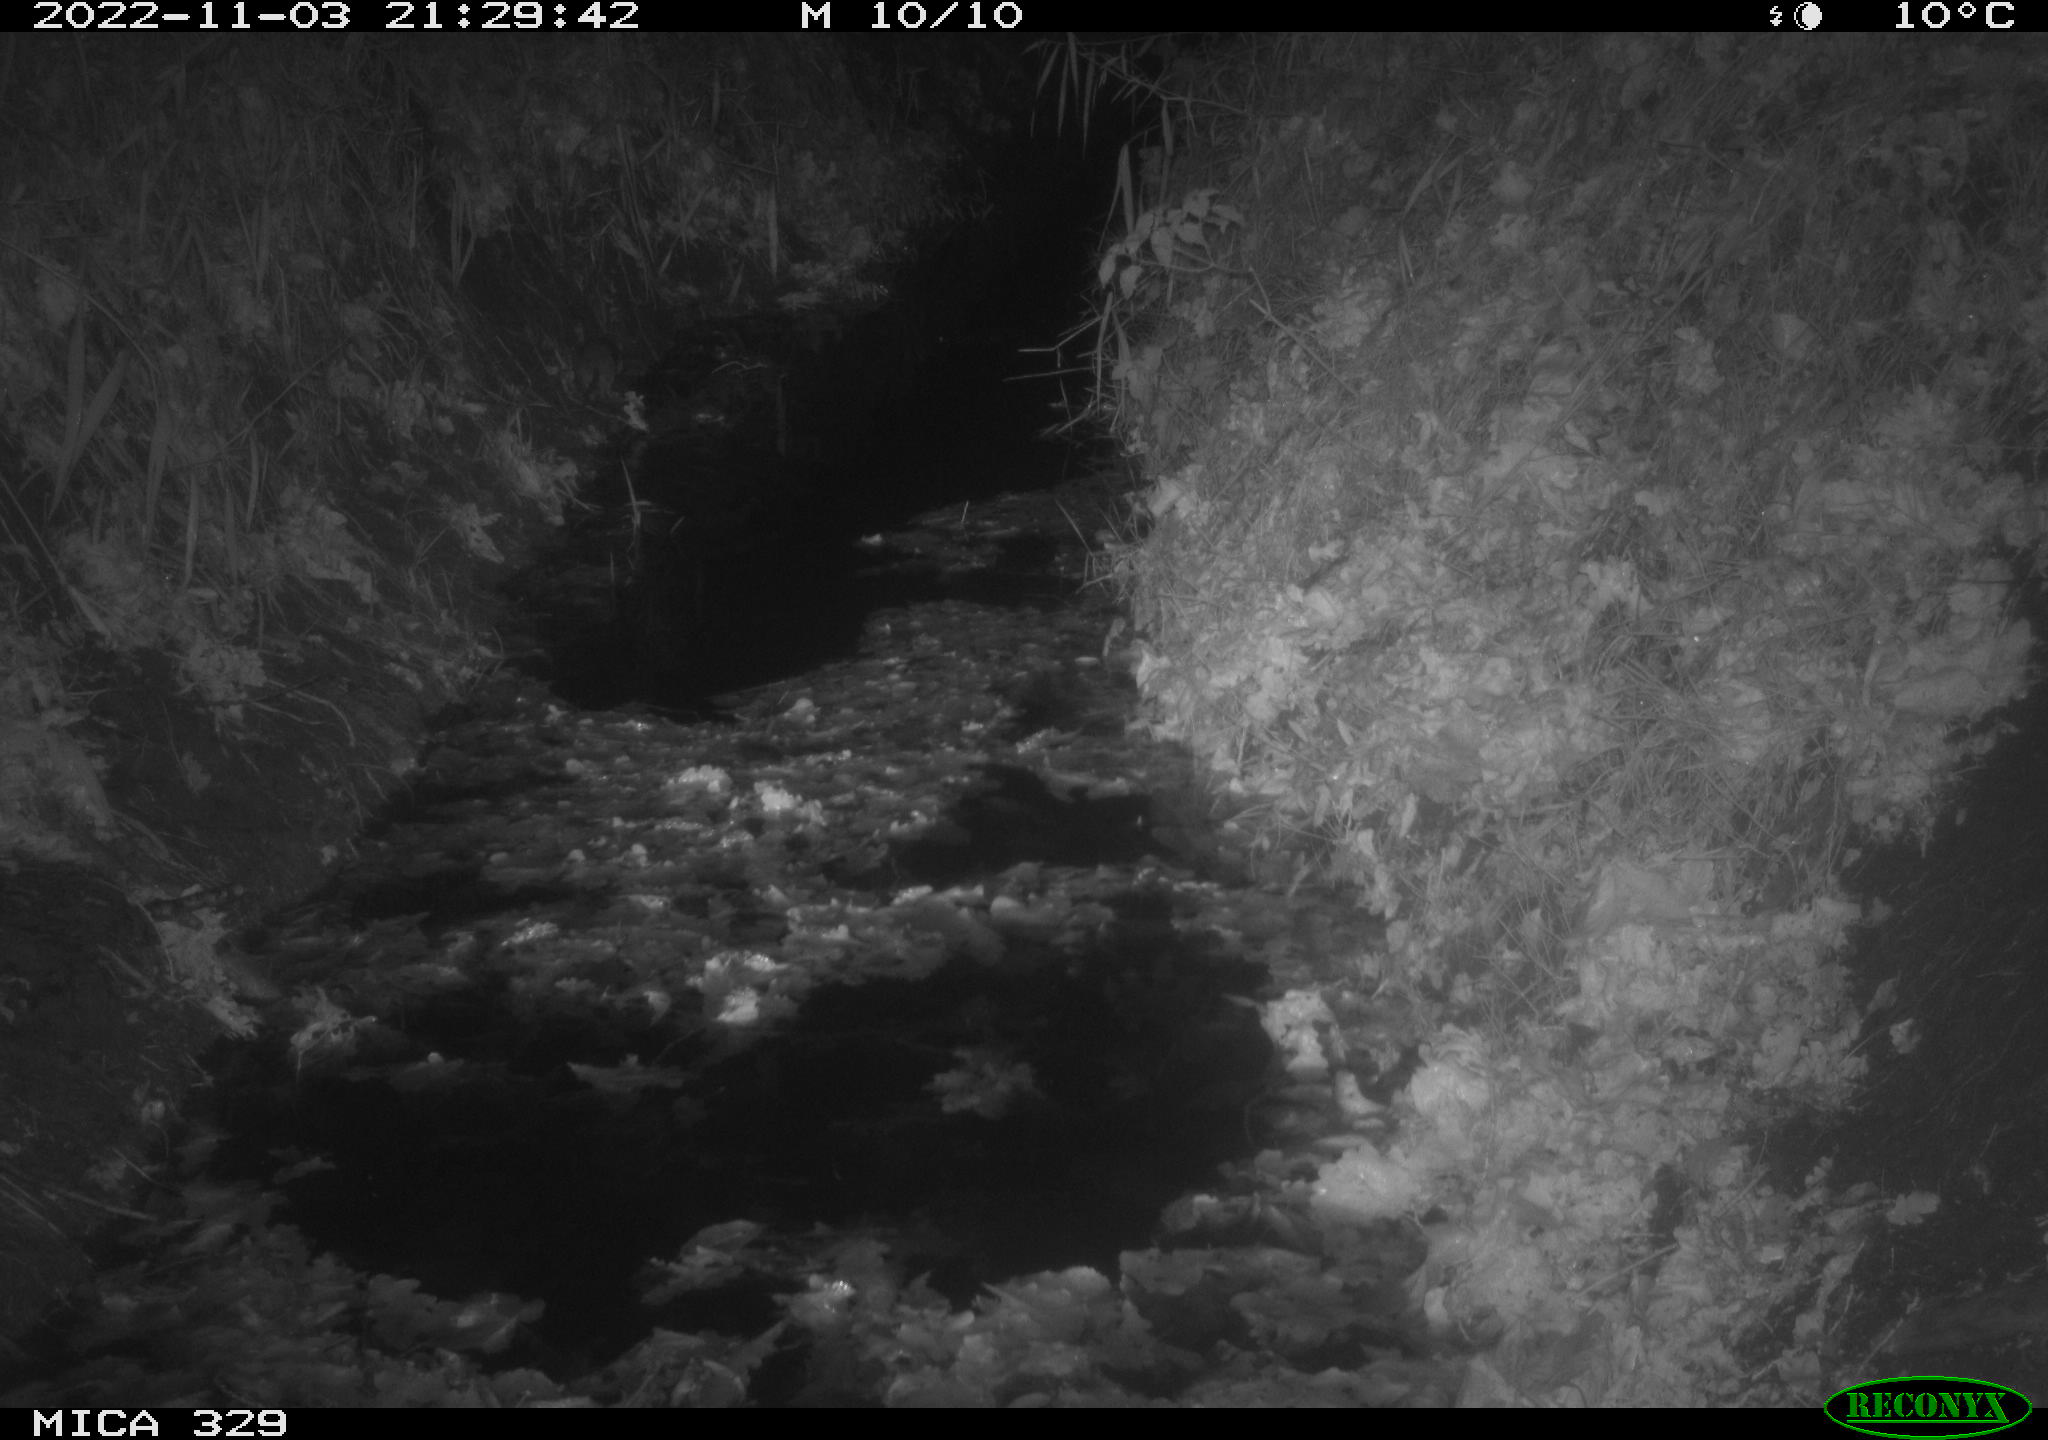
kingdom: Animalia
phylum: Chordata
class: Mammalia
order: Rodentia
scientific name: Rodentia
